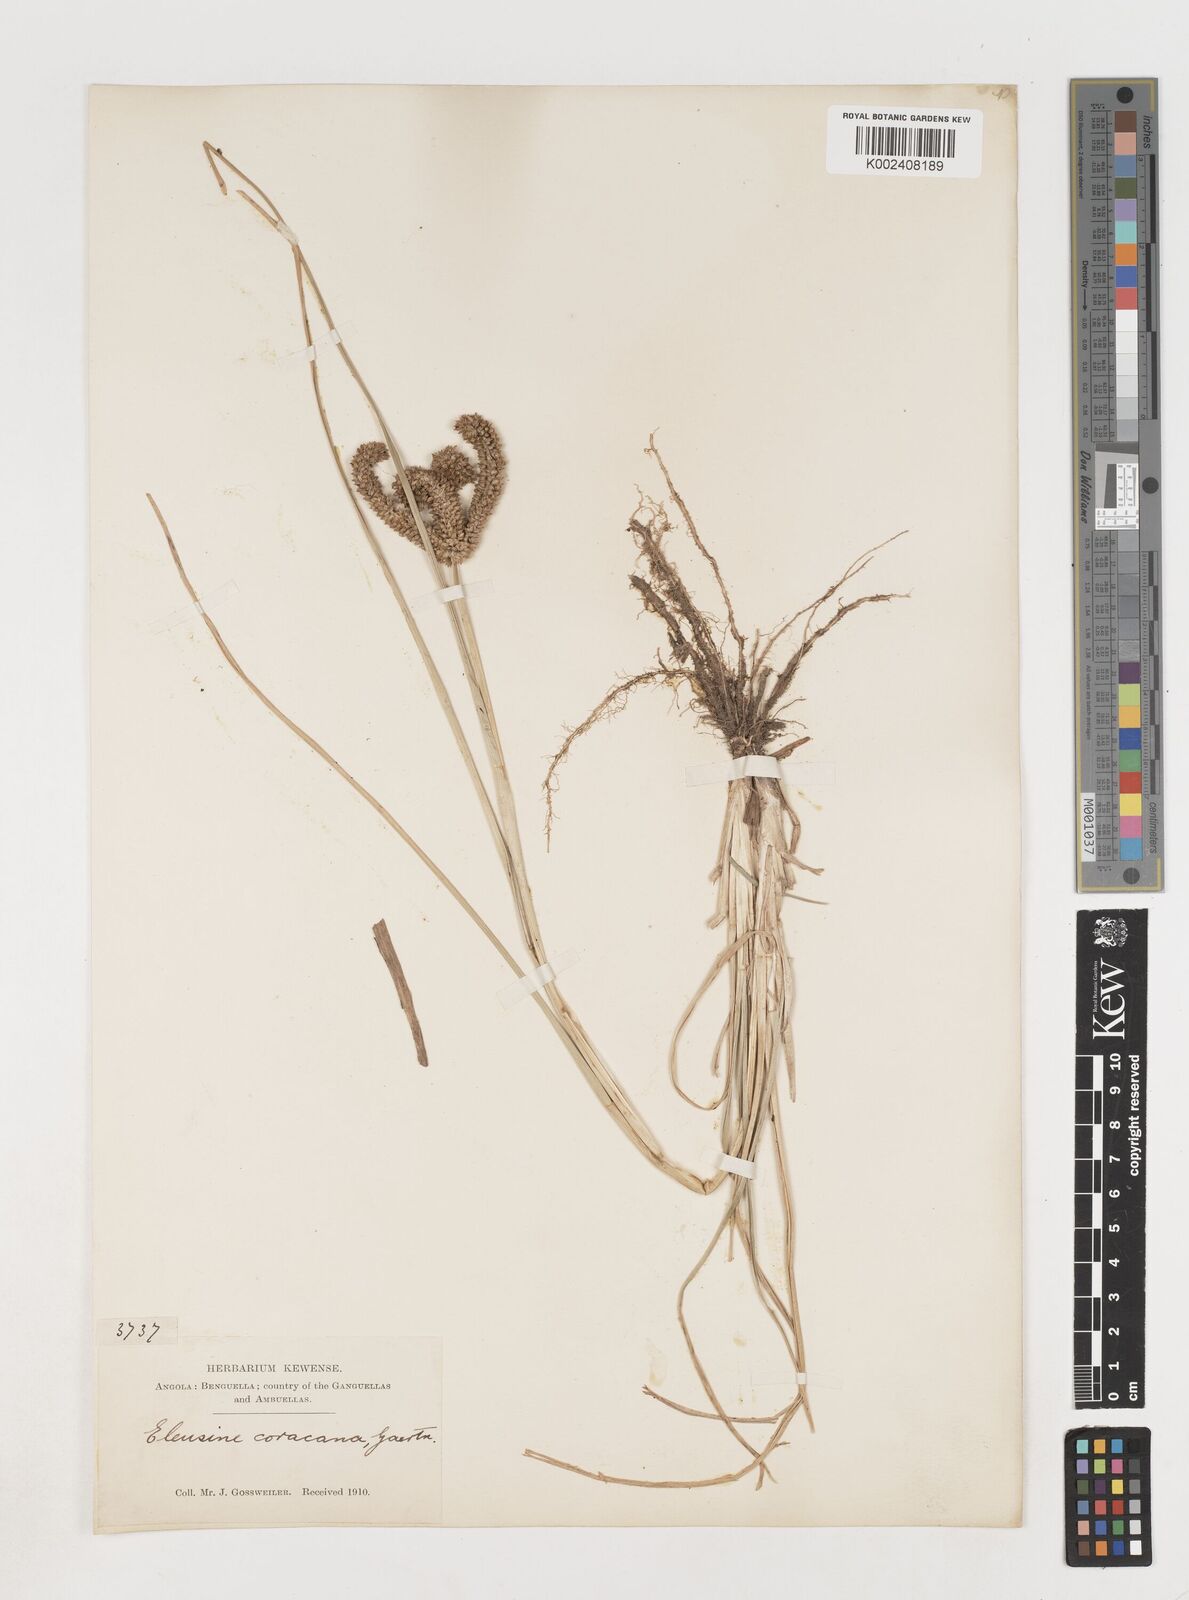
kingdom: Plantae
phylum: Tracheophyta
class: Liliopsida
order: Poales
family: Poaceae
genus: Eleusine
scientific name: Eleusine coracana
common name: Finger millet
